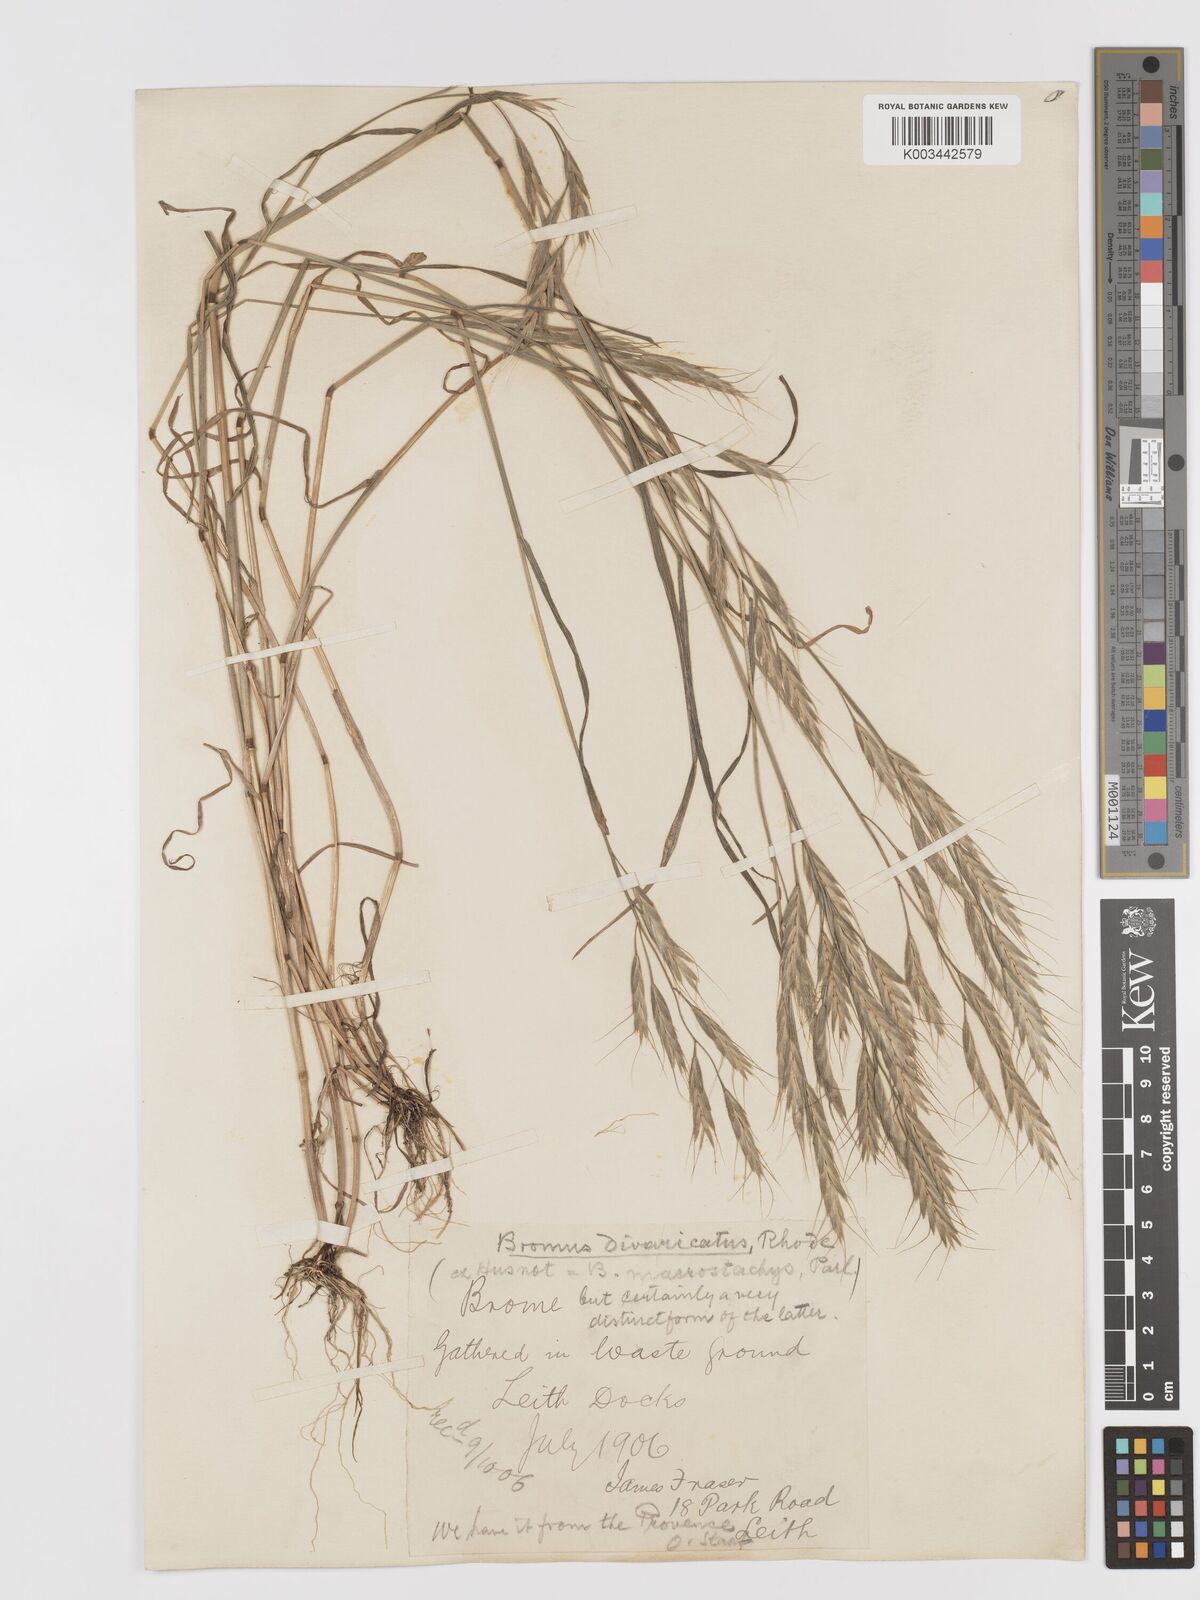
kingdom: Plantae
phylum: Tracheophyta
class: Liliopsida
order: Poales
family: Poaceae
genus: Bromus
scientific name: Bromus lanceolatus
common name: Mediterranean brome
